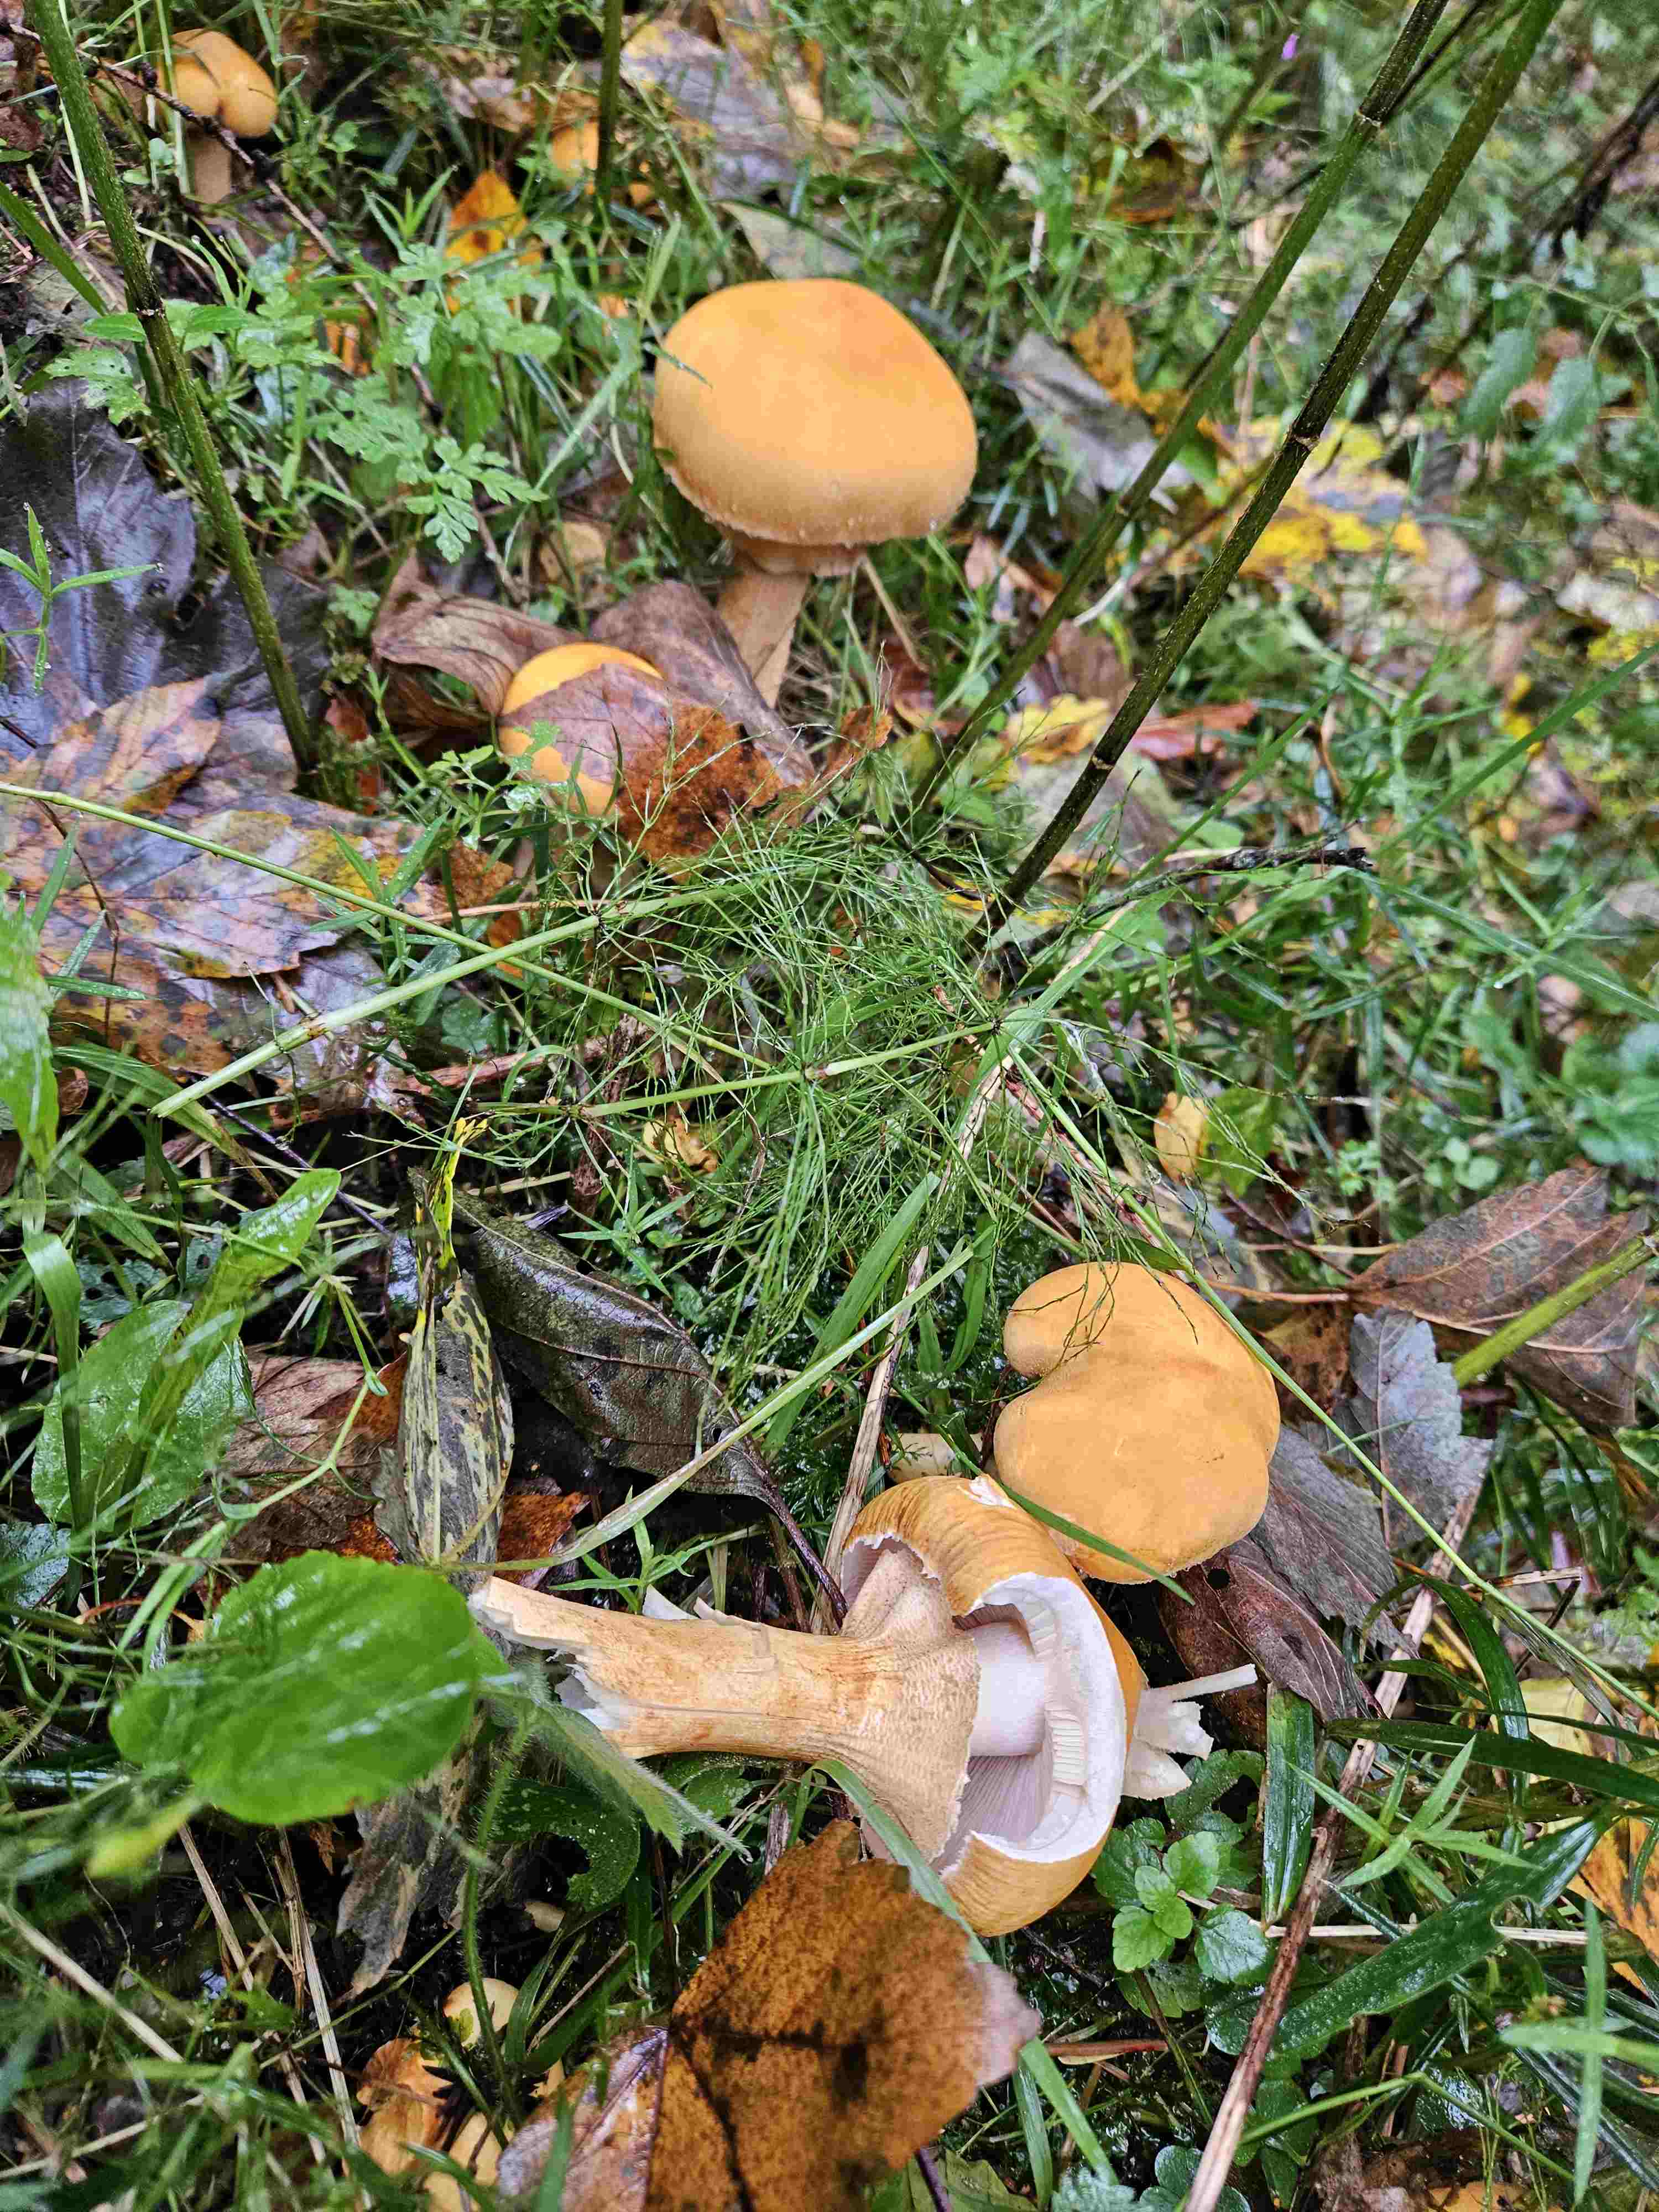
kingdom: Fungi
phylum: Basidiomycota
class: Agaricomycetes
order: Agaricales
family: Tricholomataceae
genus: Phaeolepiota
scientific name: Phaeolepiota aurea
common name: gyldenhat
